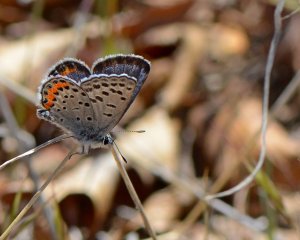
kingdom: Animalia
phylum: Arthropoda
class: Insecta
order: Lepidoptera
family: Lycaenidae
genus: Plebejus
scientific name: Plebejus acmon
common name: Acmon Blue
